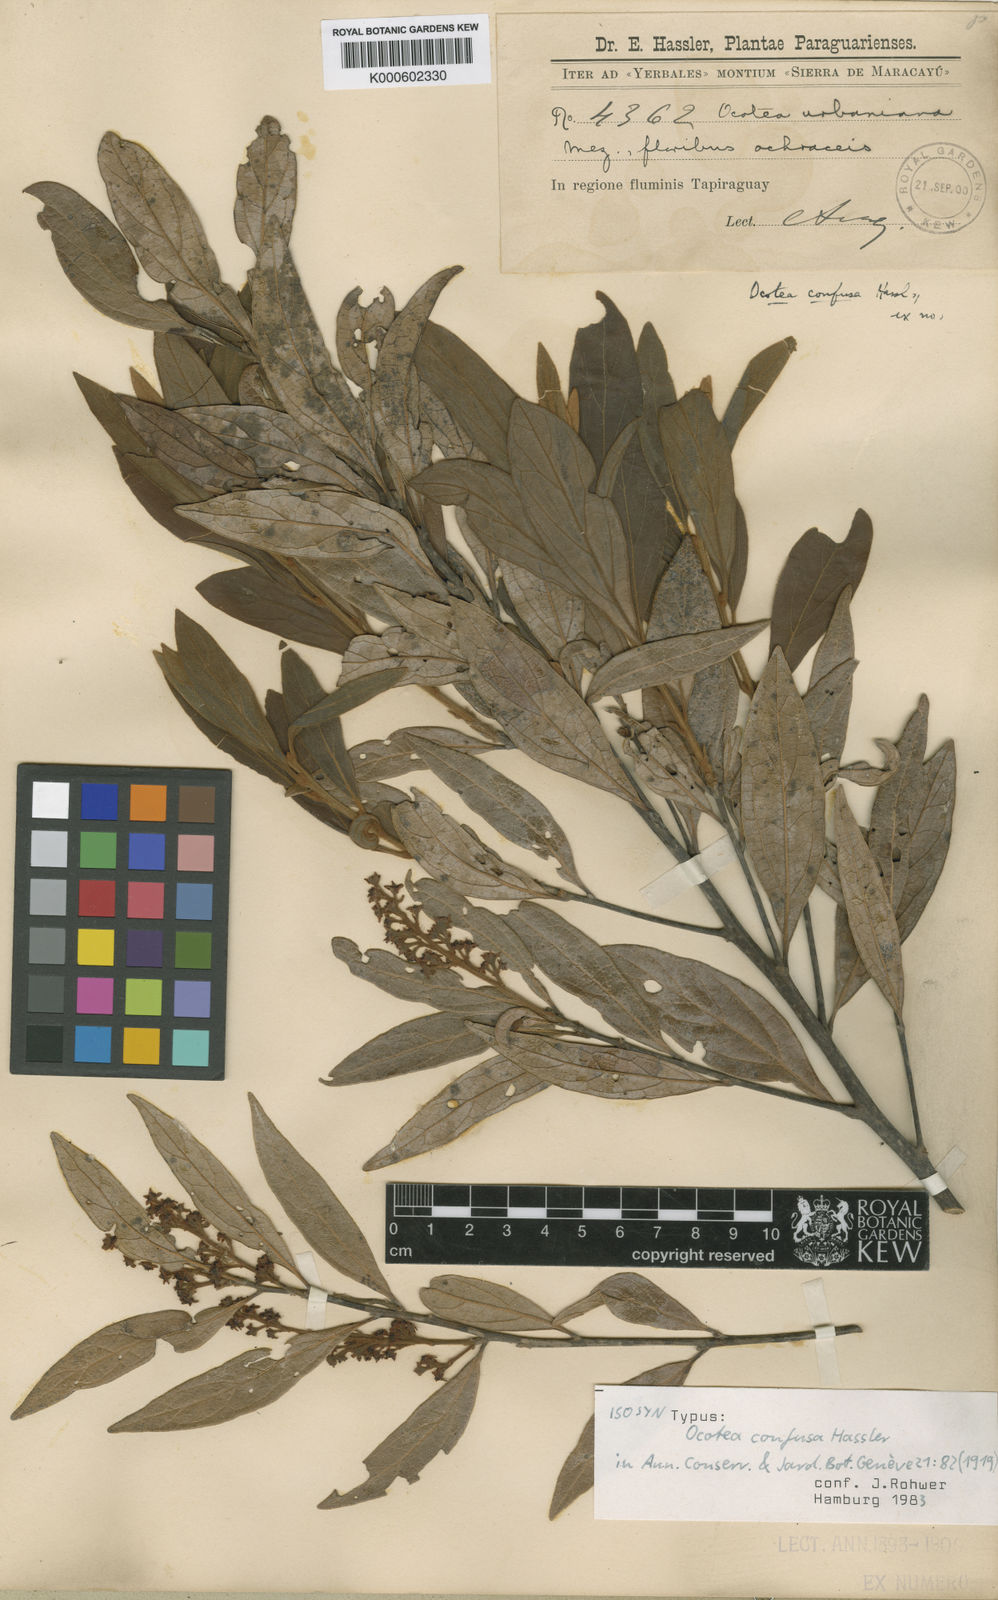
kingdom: Plantae
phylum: Tracheophyta
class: Magnoliopsida
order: Laurales
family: Lauraceae
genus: Ocotea
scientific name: Ocotea densiflora
